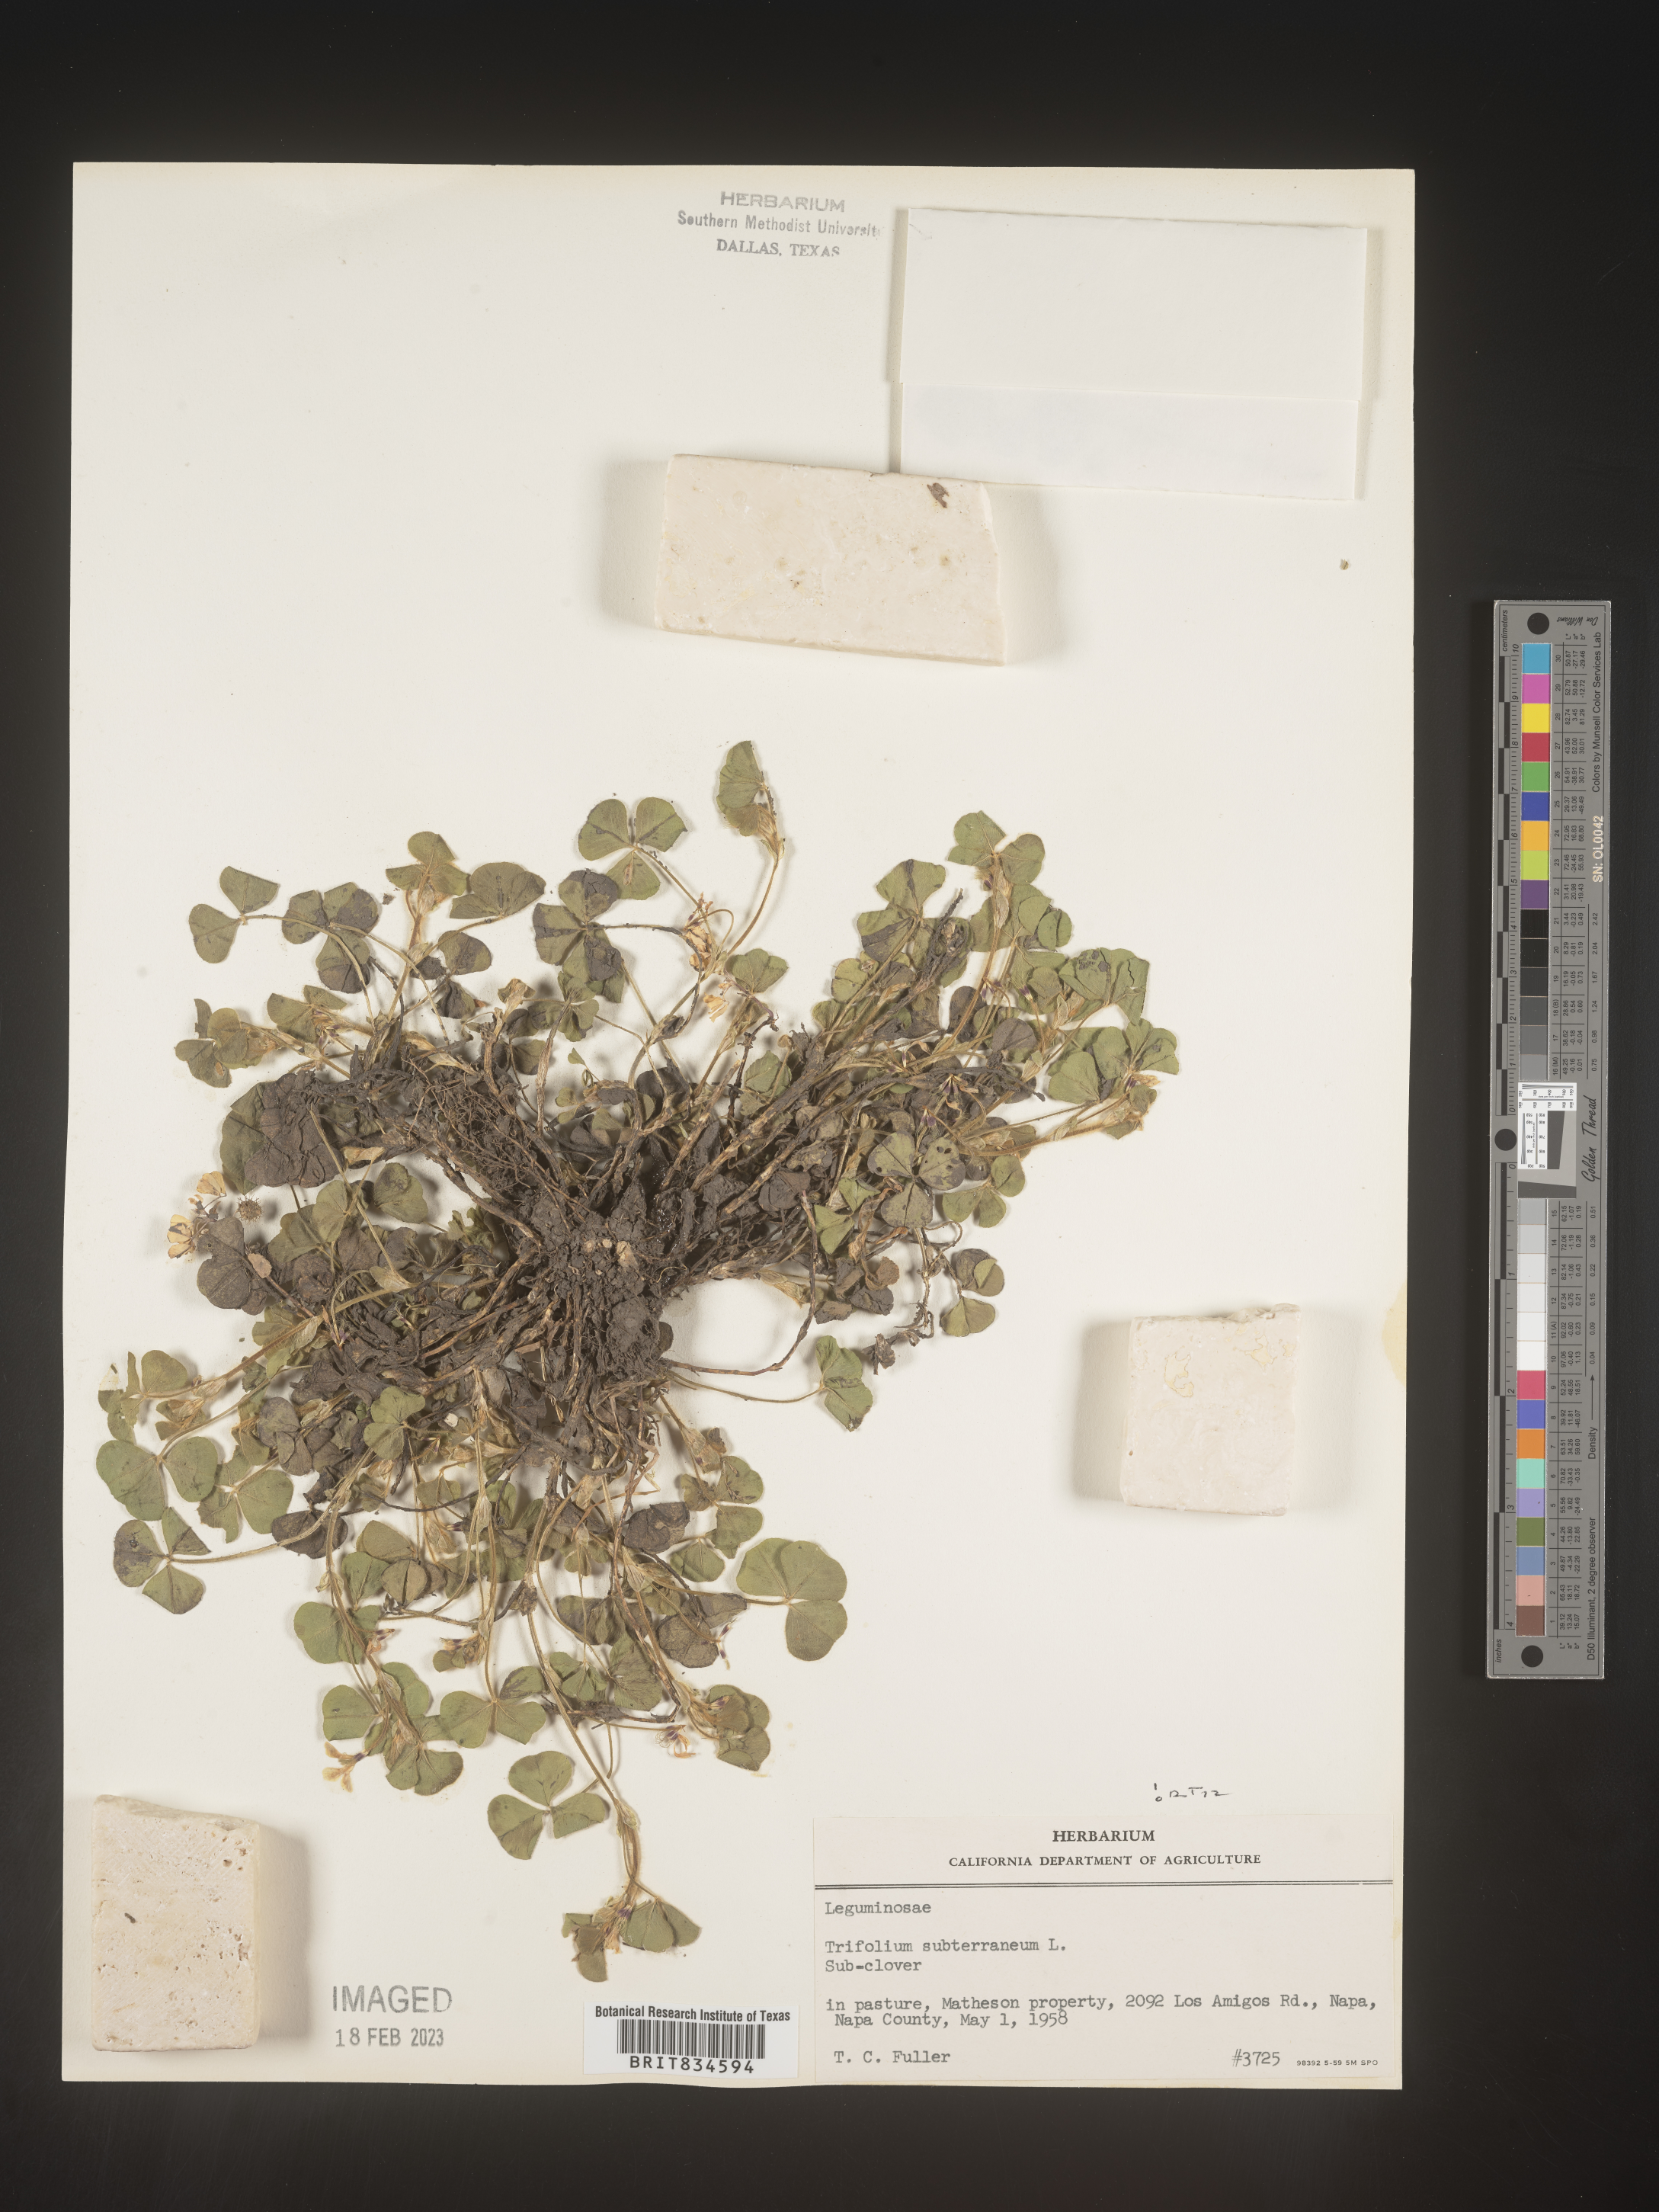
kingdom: Plantae
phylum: Tracheophyta
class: Magnoliopsida
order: Fabales
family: Fabaceae
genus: Trifolium
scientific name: Trifolium
